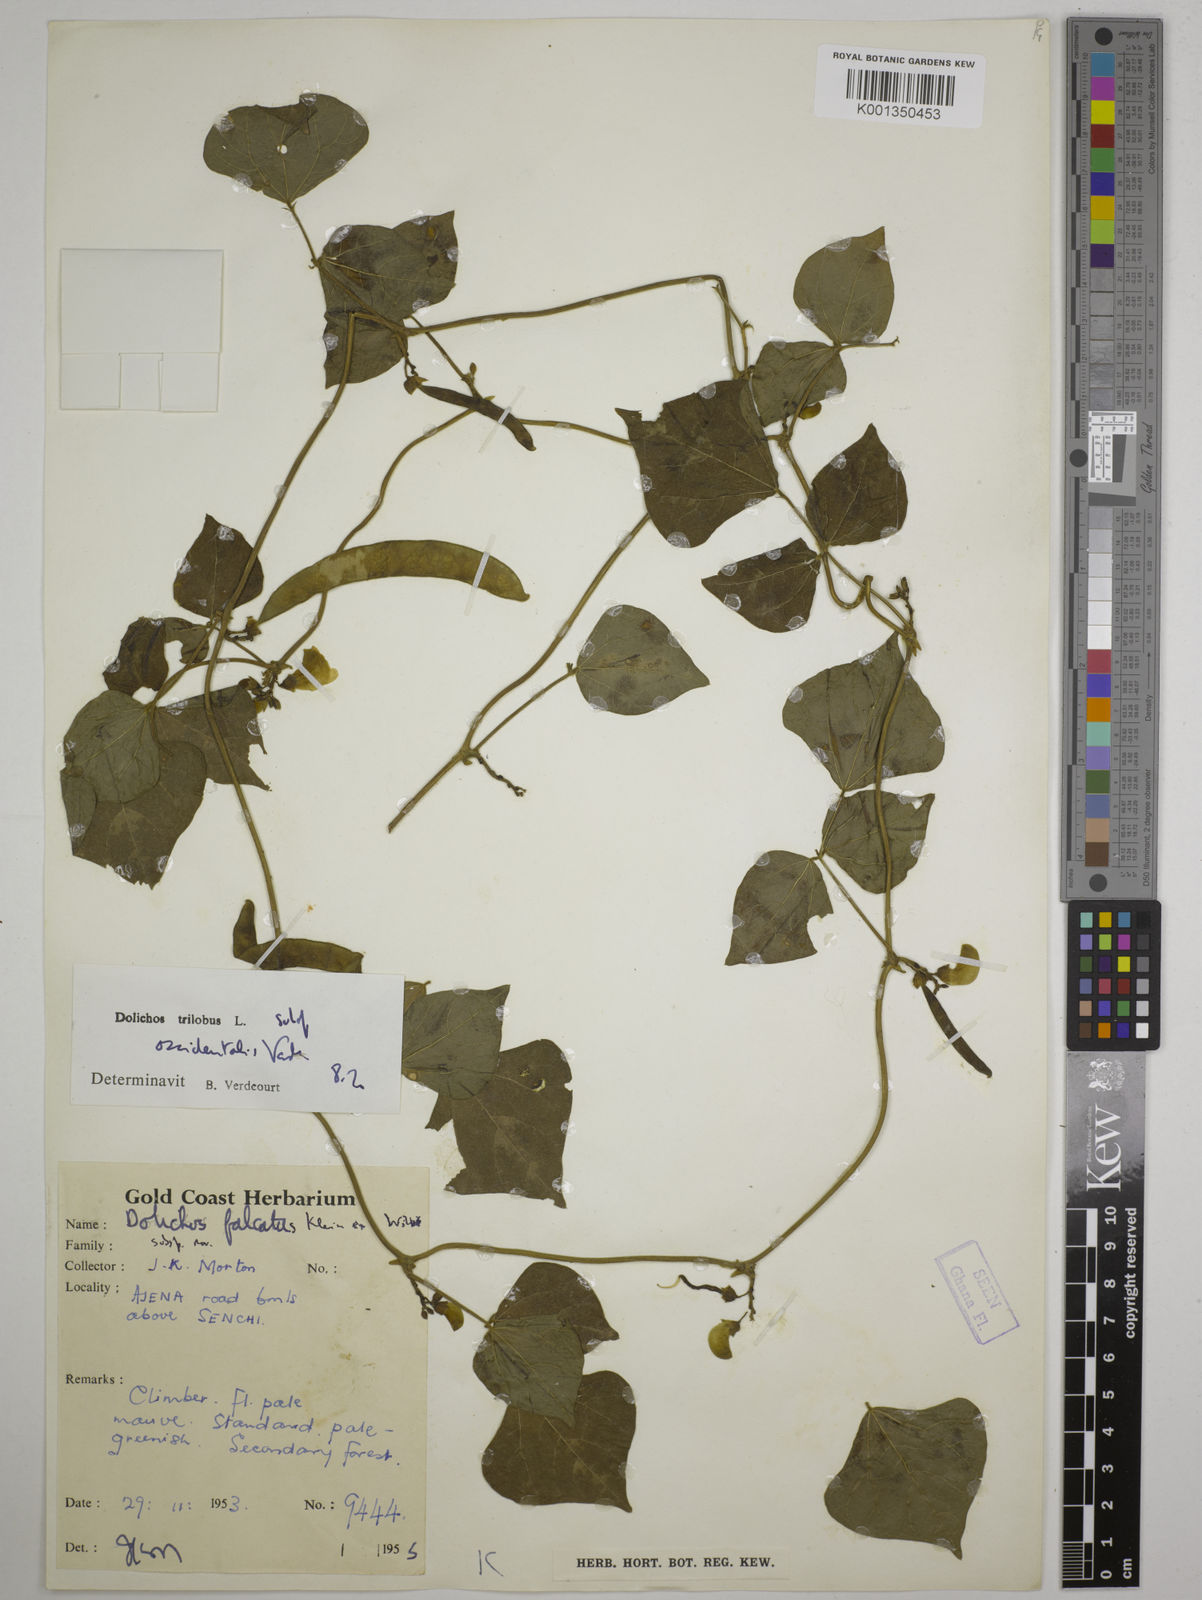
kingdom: Plantae
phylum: Tracheophyta
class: Magnoliopsida
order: Fabales
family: Fabaceae
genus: Dolichos
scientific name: Dolichos
